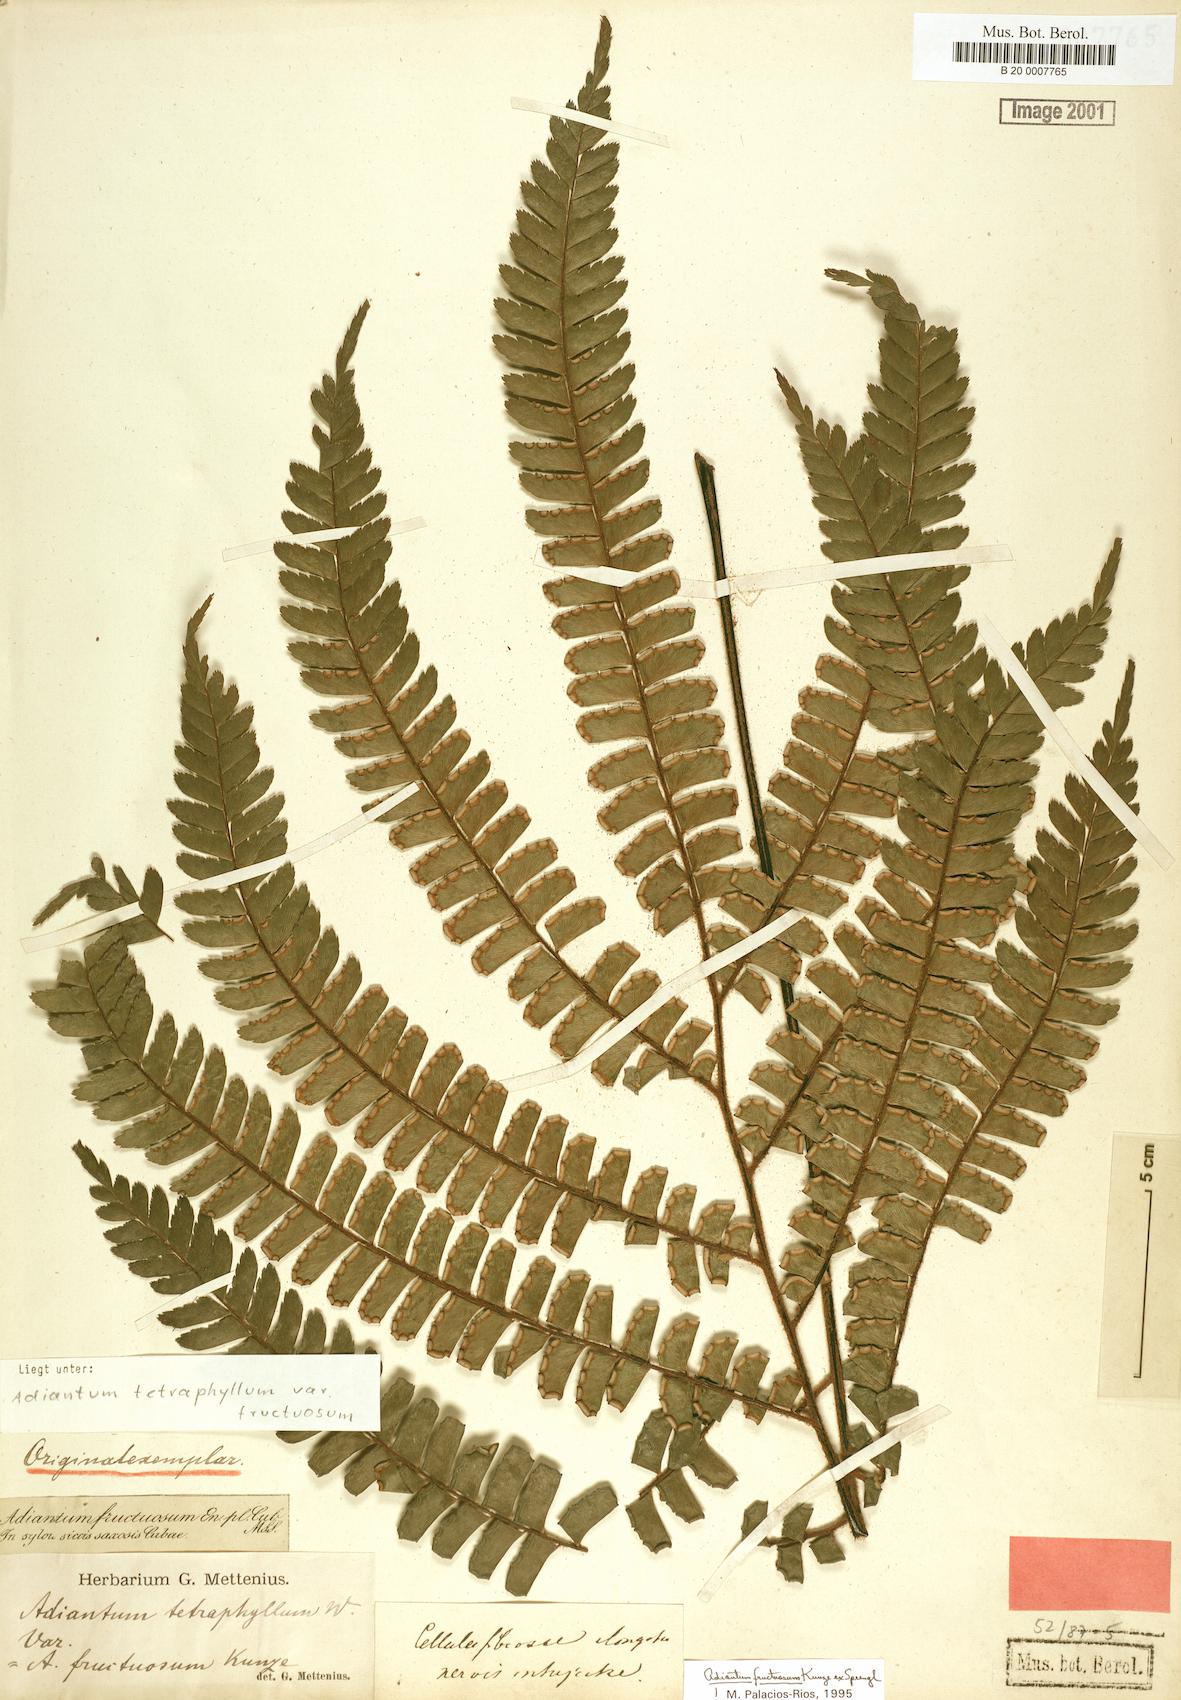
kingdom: Plantae
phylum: Tracheophyta
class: Polypodiopsida
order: Polypodiales
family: Pteridaceae
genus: Adiantum
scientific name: Adiantum tetraphyllum
